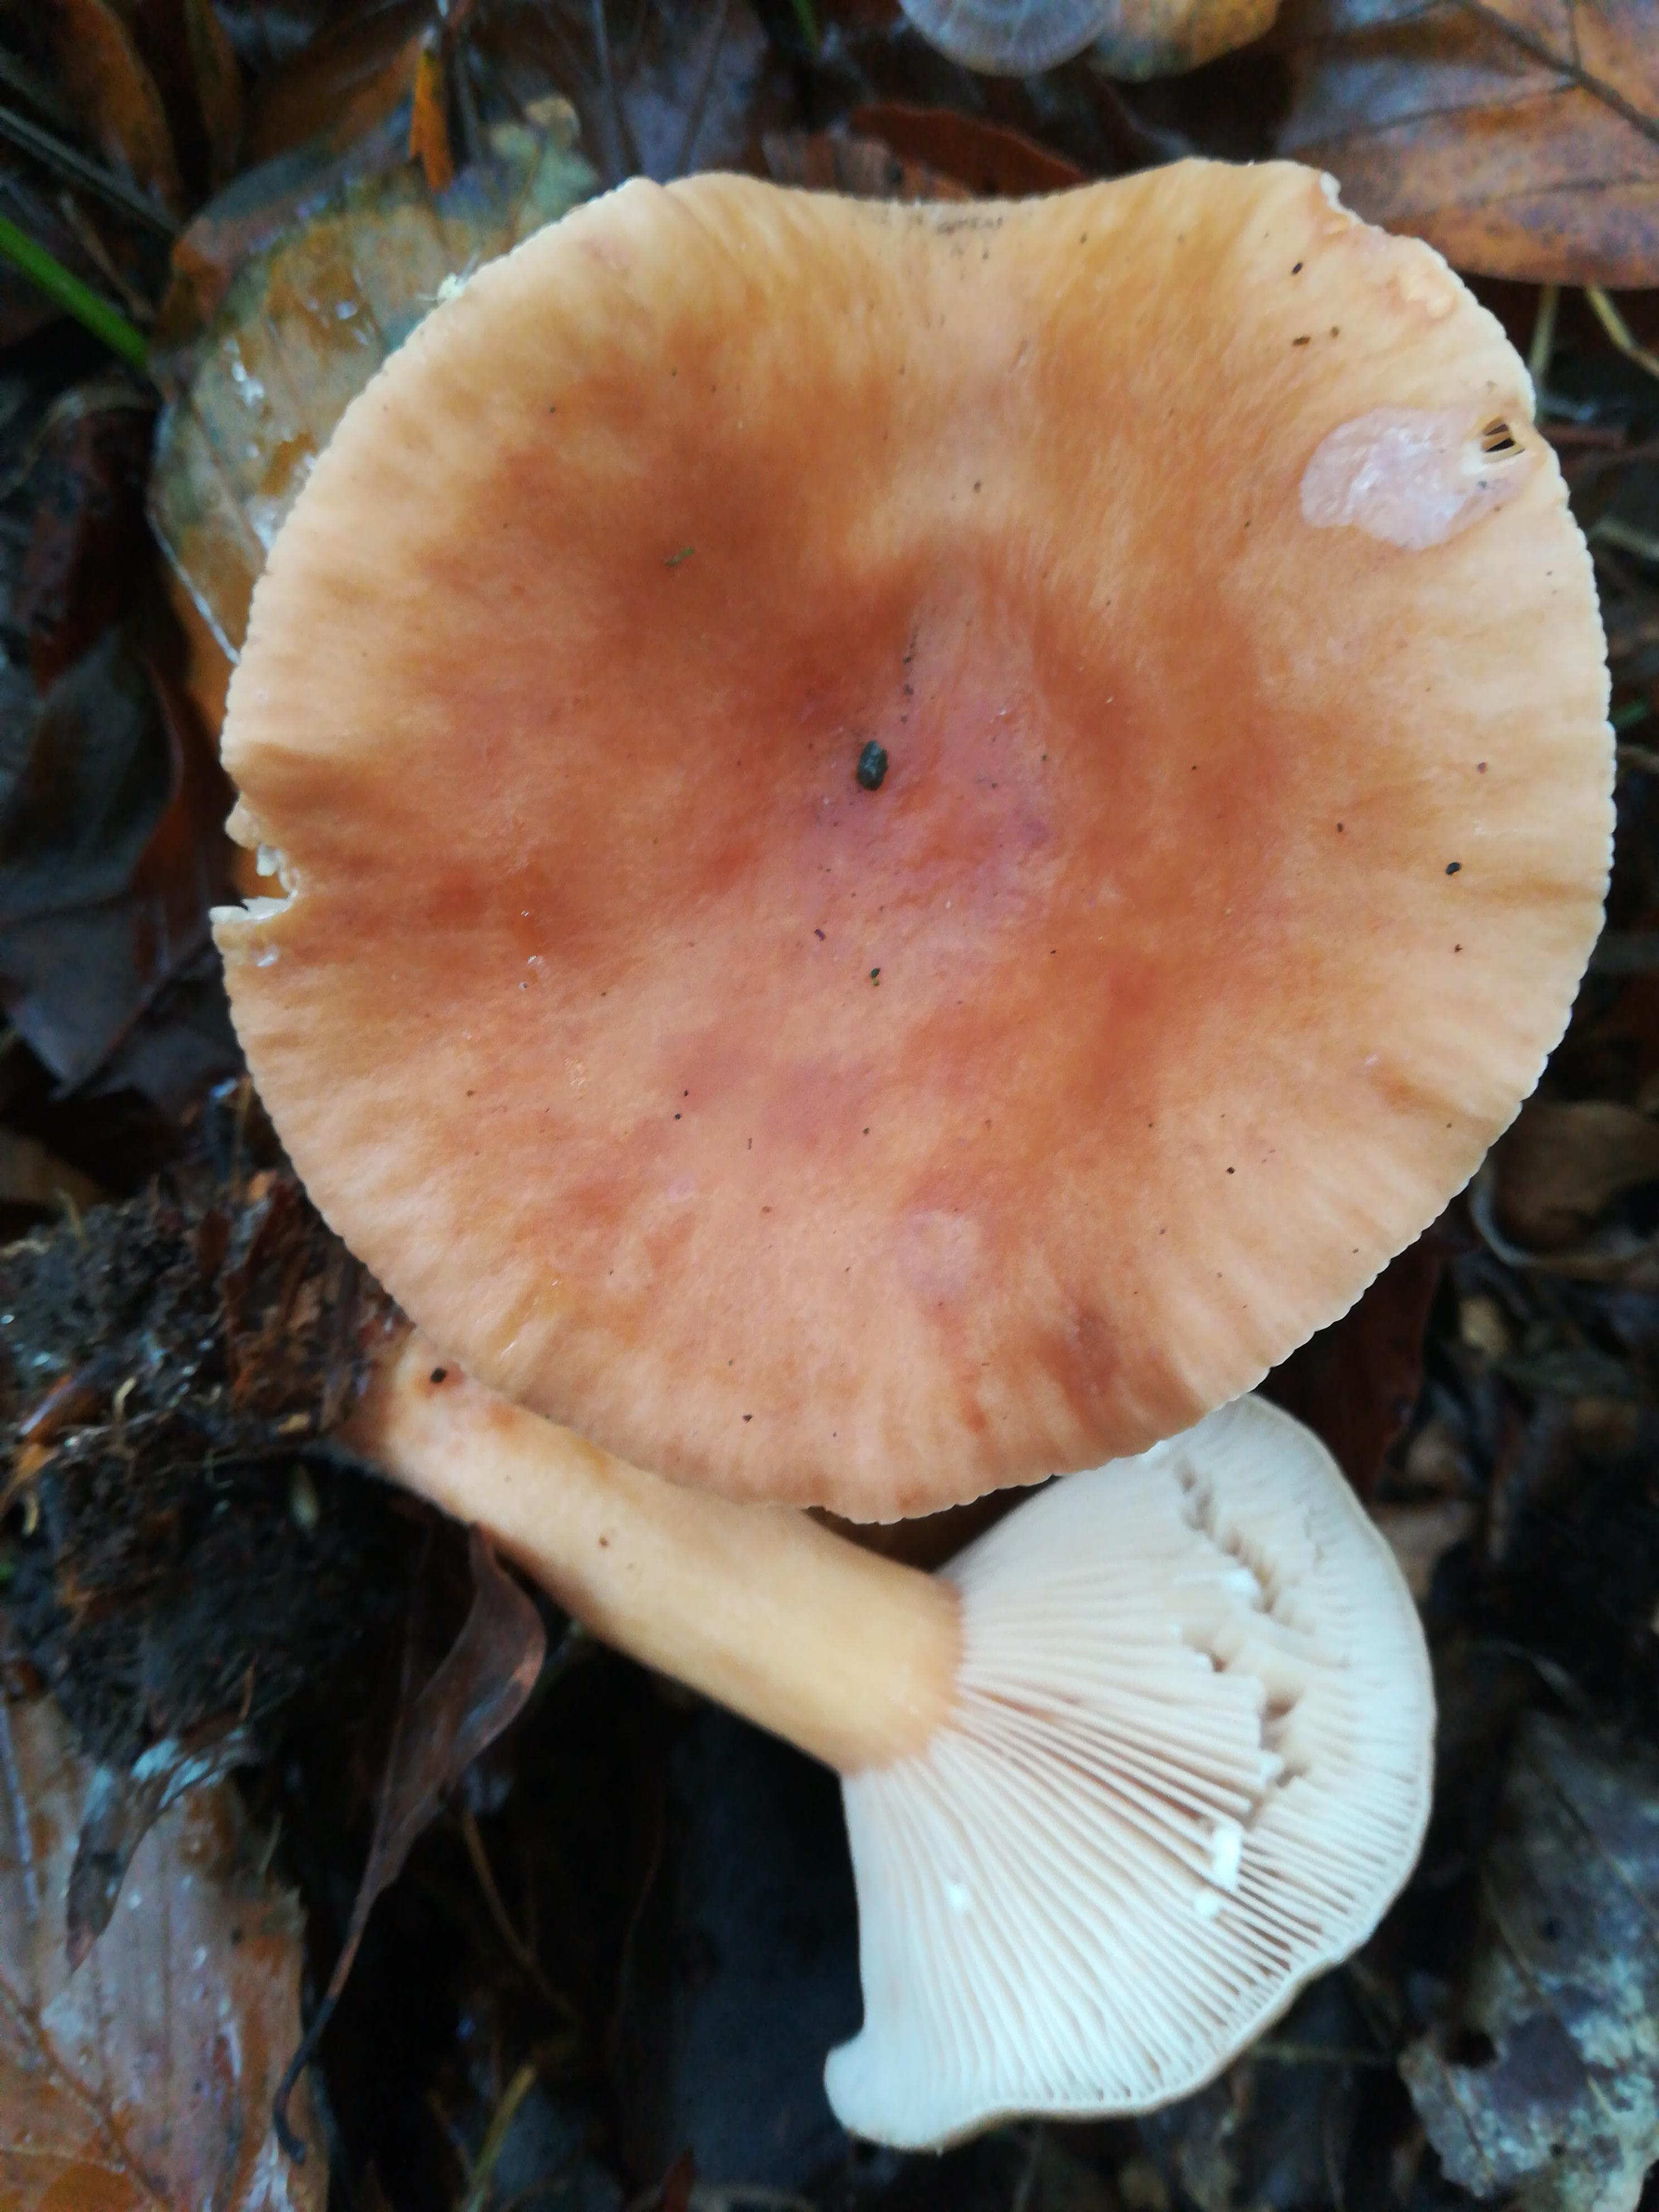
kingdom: Fungi
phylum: Basidiomycota
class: Agaricomycetes
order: Russulales
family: Russulaceae
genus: Lactarius
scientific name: Lactarius subdulcis
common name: sødlig mælkehat
